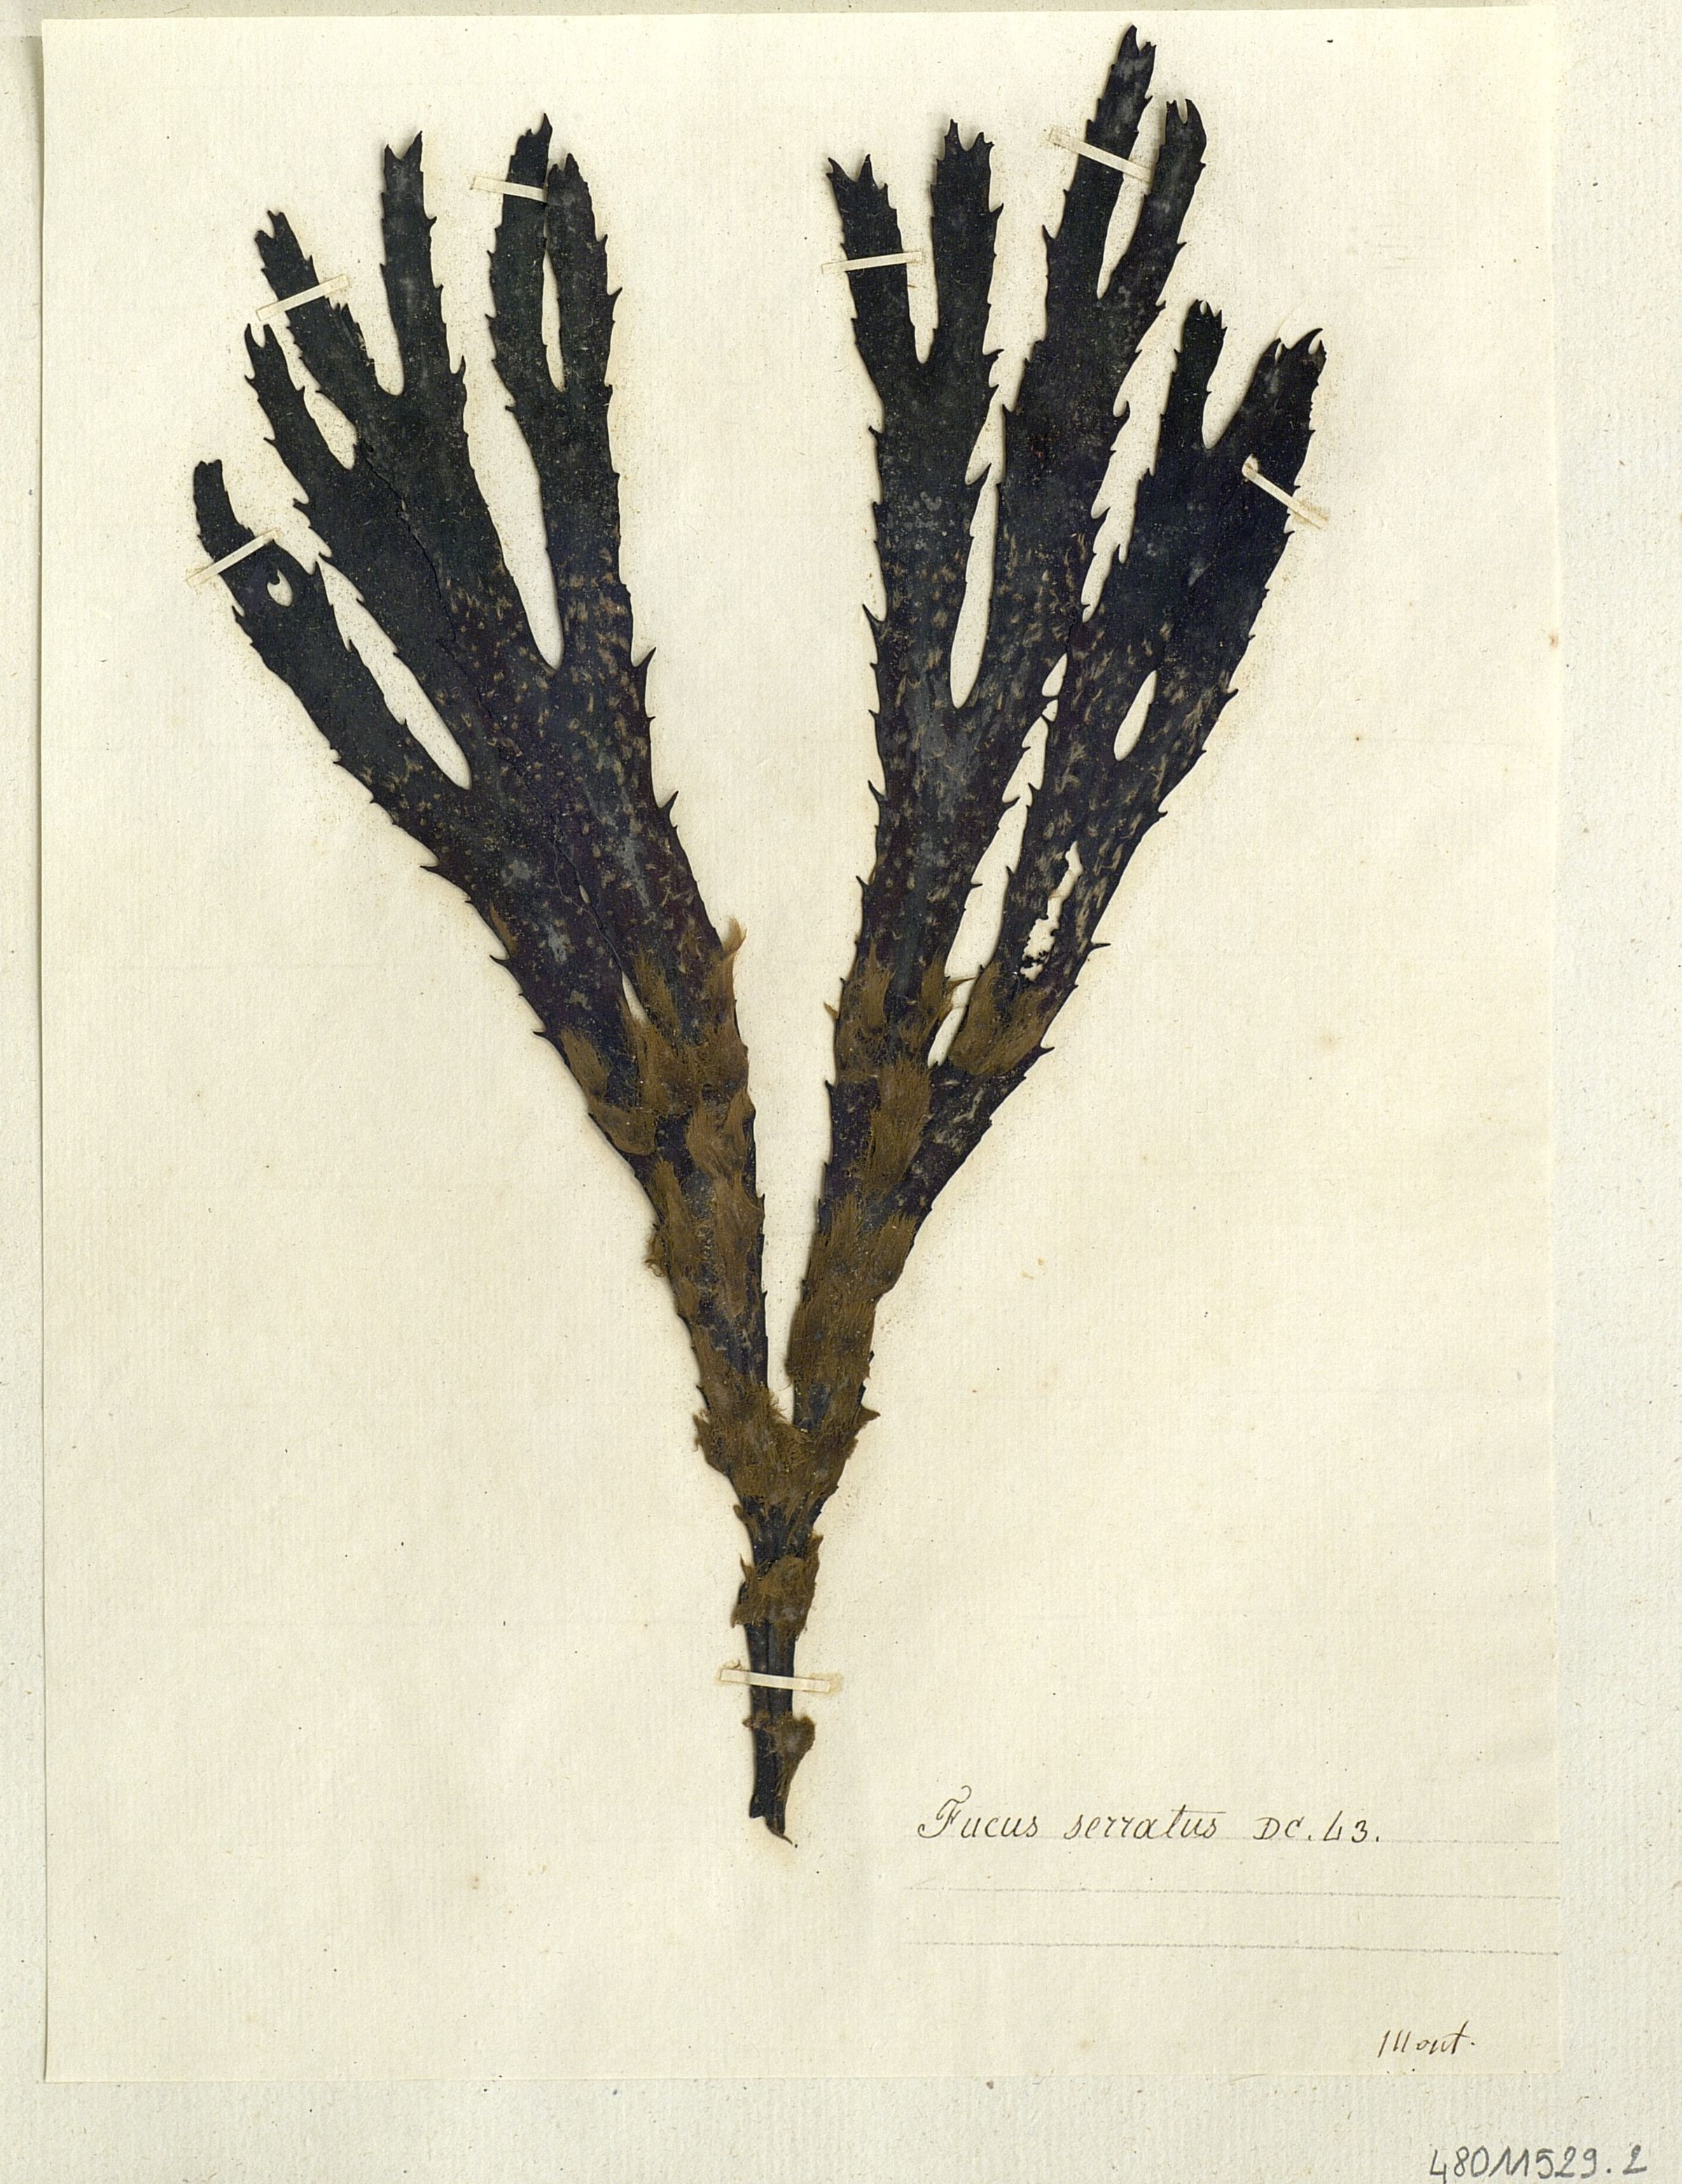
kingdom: Chromista
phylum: Ochrophyta
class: Phaeophyceae
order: Fucales
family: Fucaceae
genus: Fucus
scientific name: Fucus serratus
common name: Toothed wrack
